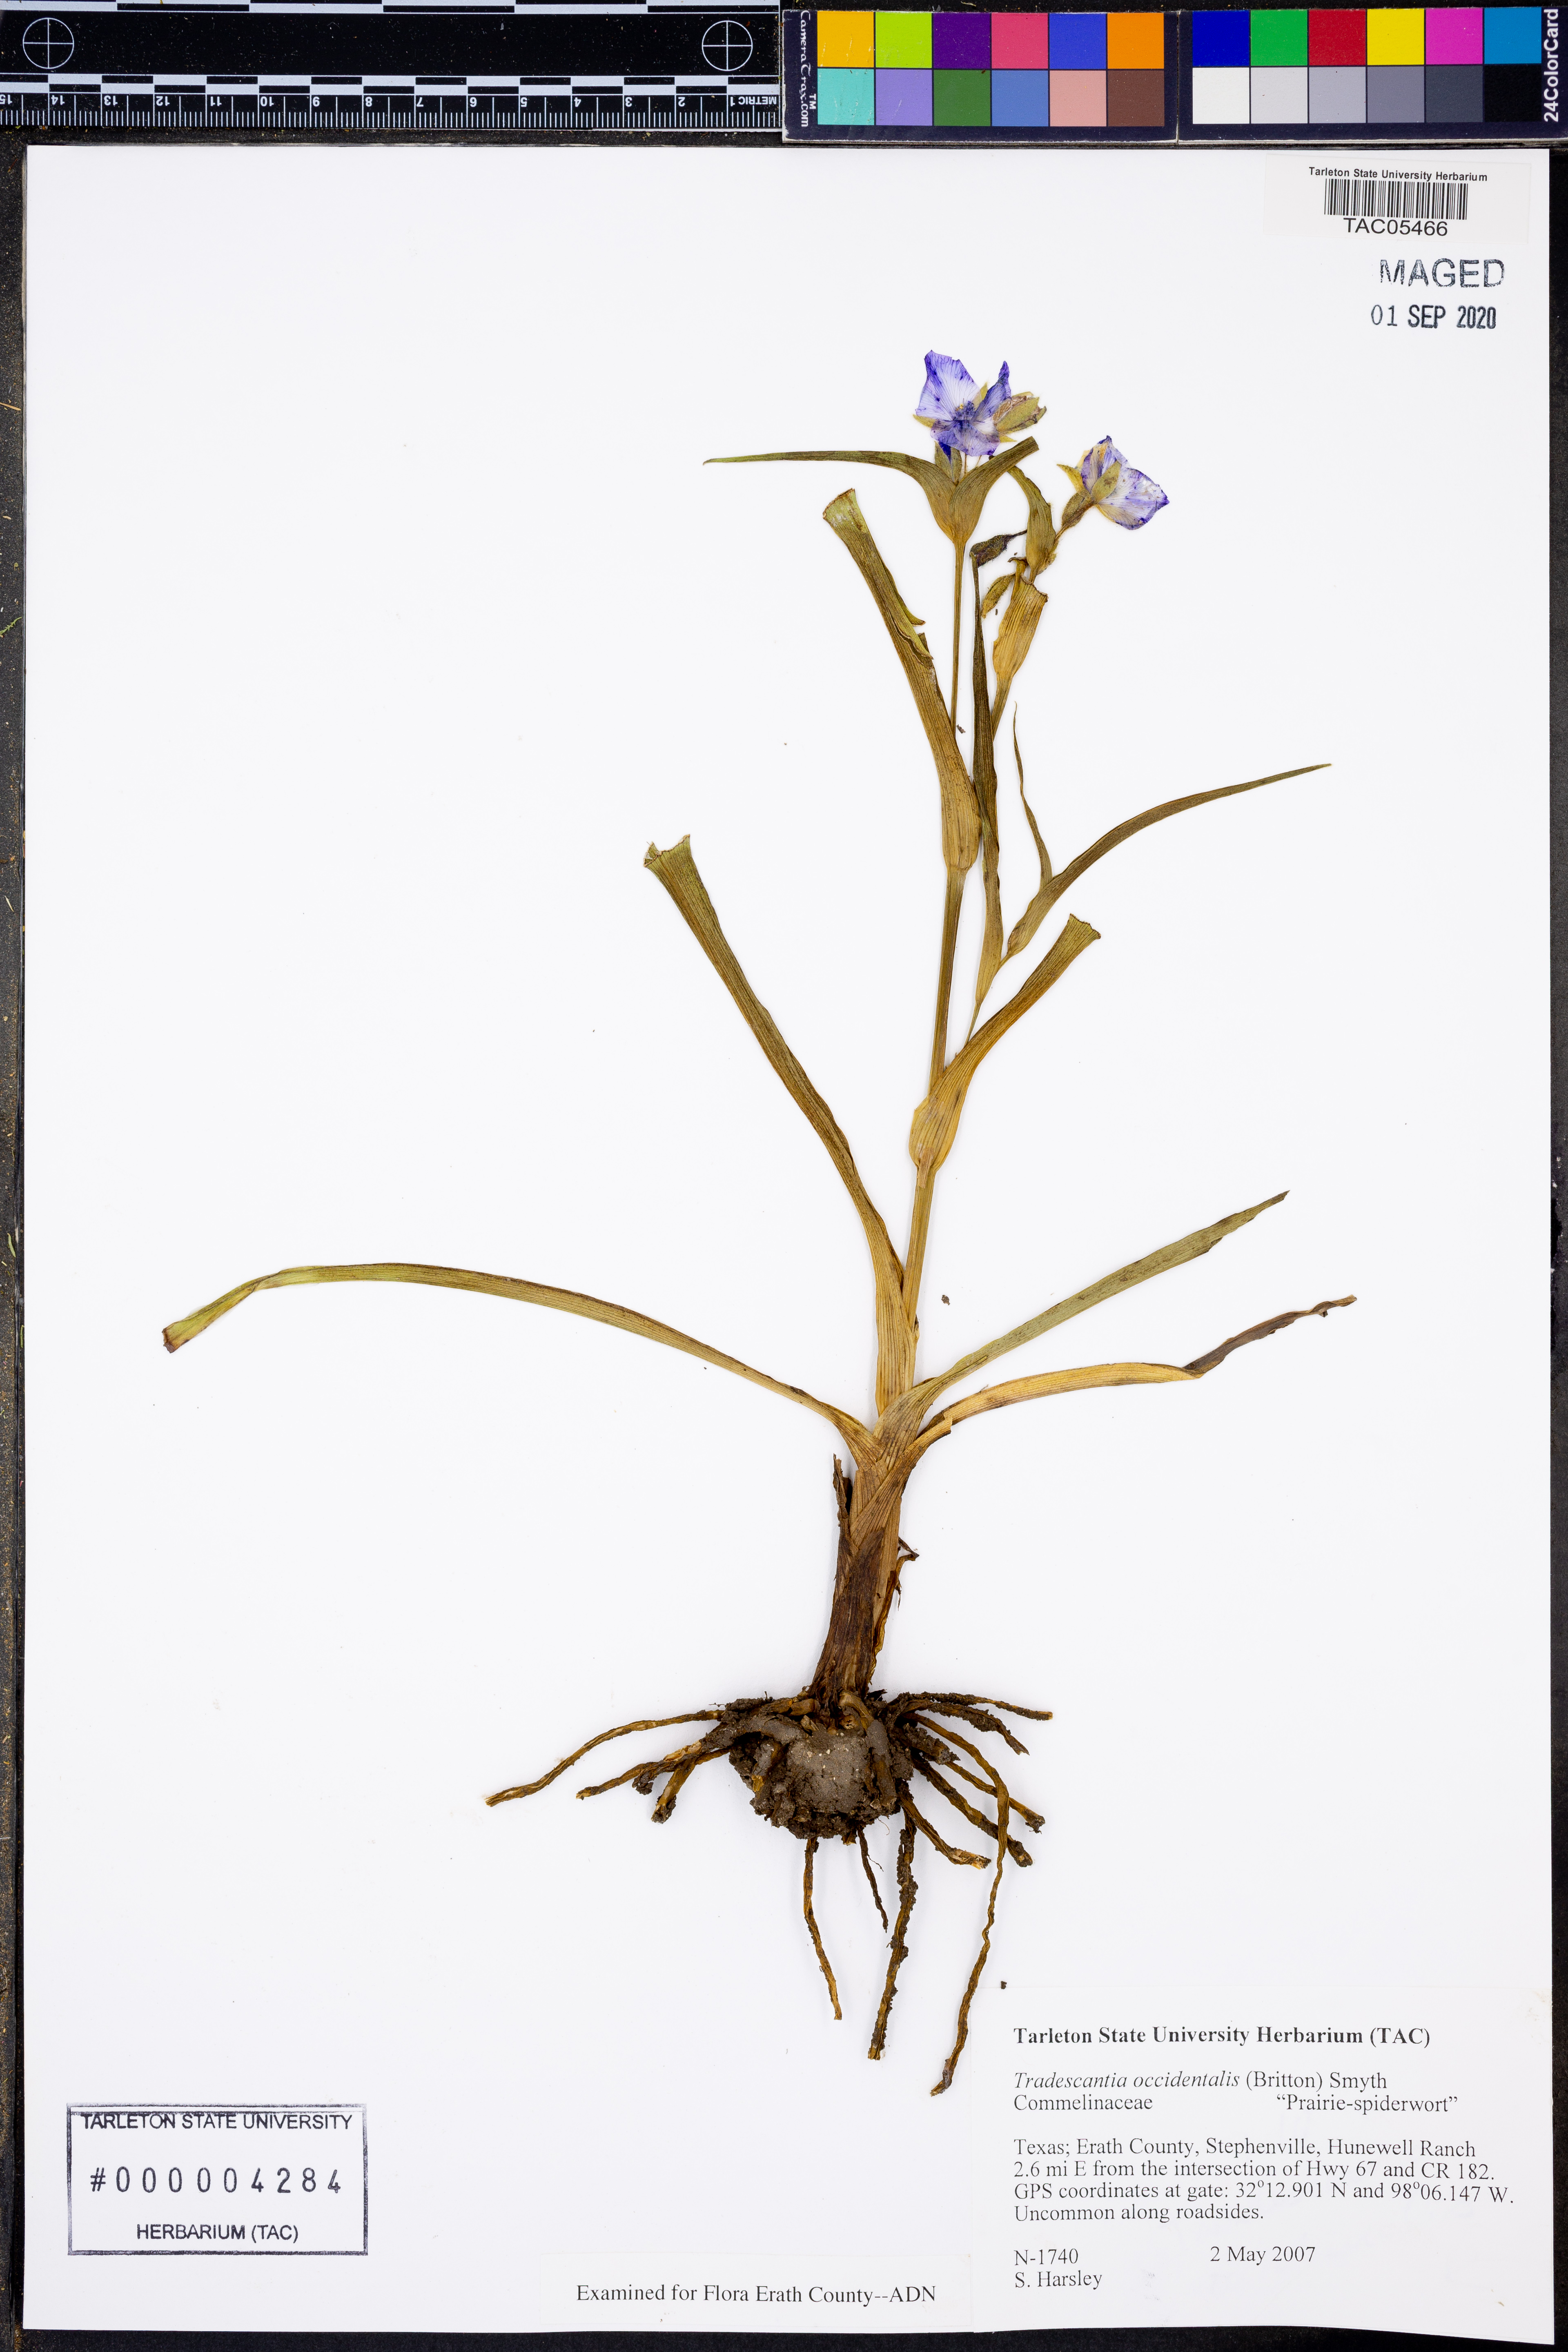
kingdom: Plantae
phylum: Tracheophyta
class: Liliopsida
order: Commelinales
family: Commelinaceae
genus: Tradescantia
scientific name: Tradescantia occidentalis
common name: Prairie spiderwort
